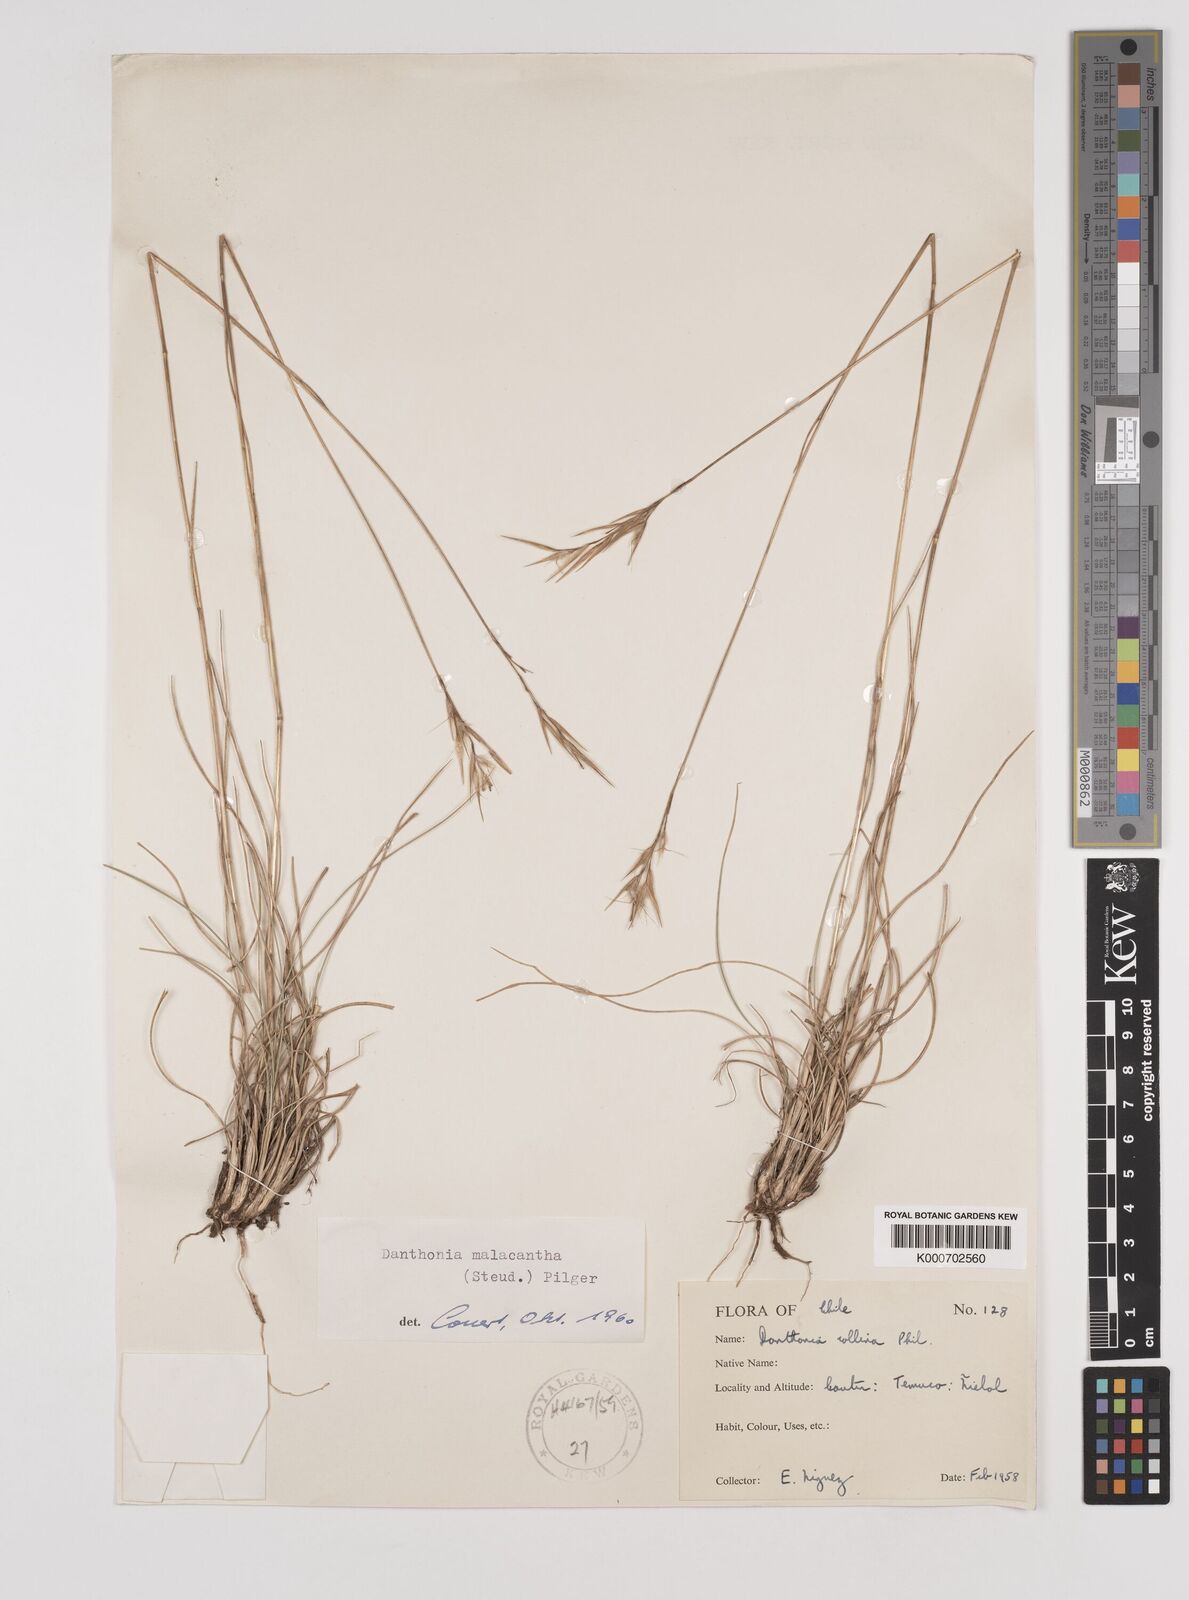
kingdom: Plantae
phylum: Tracheophyta
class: Liliopsida
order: Poales
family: Poaceae
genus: Danthonia
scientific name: Danthonia malacantha
